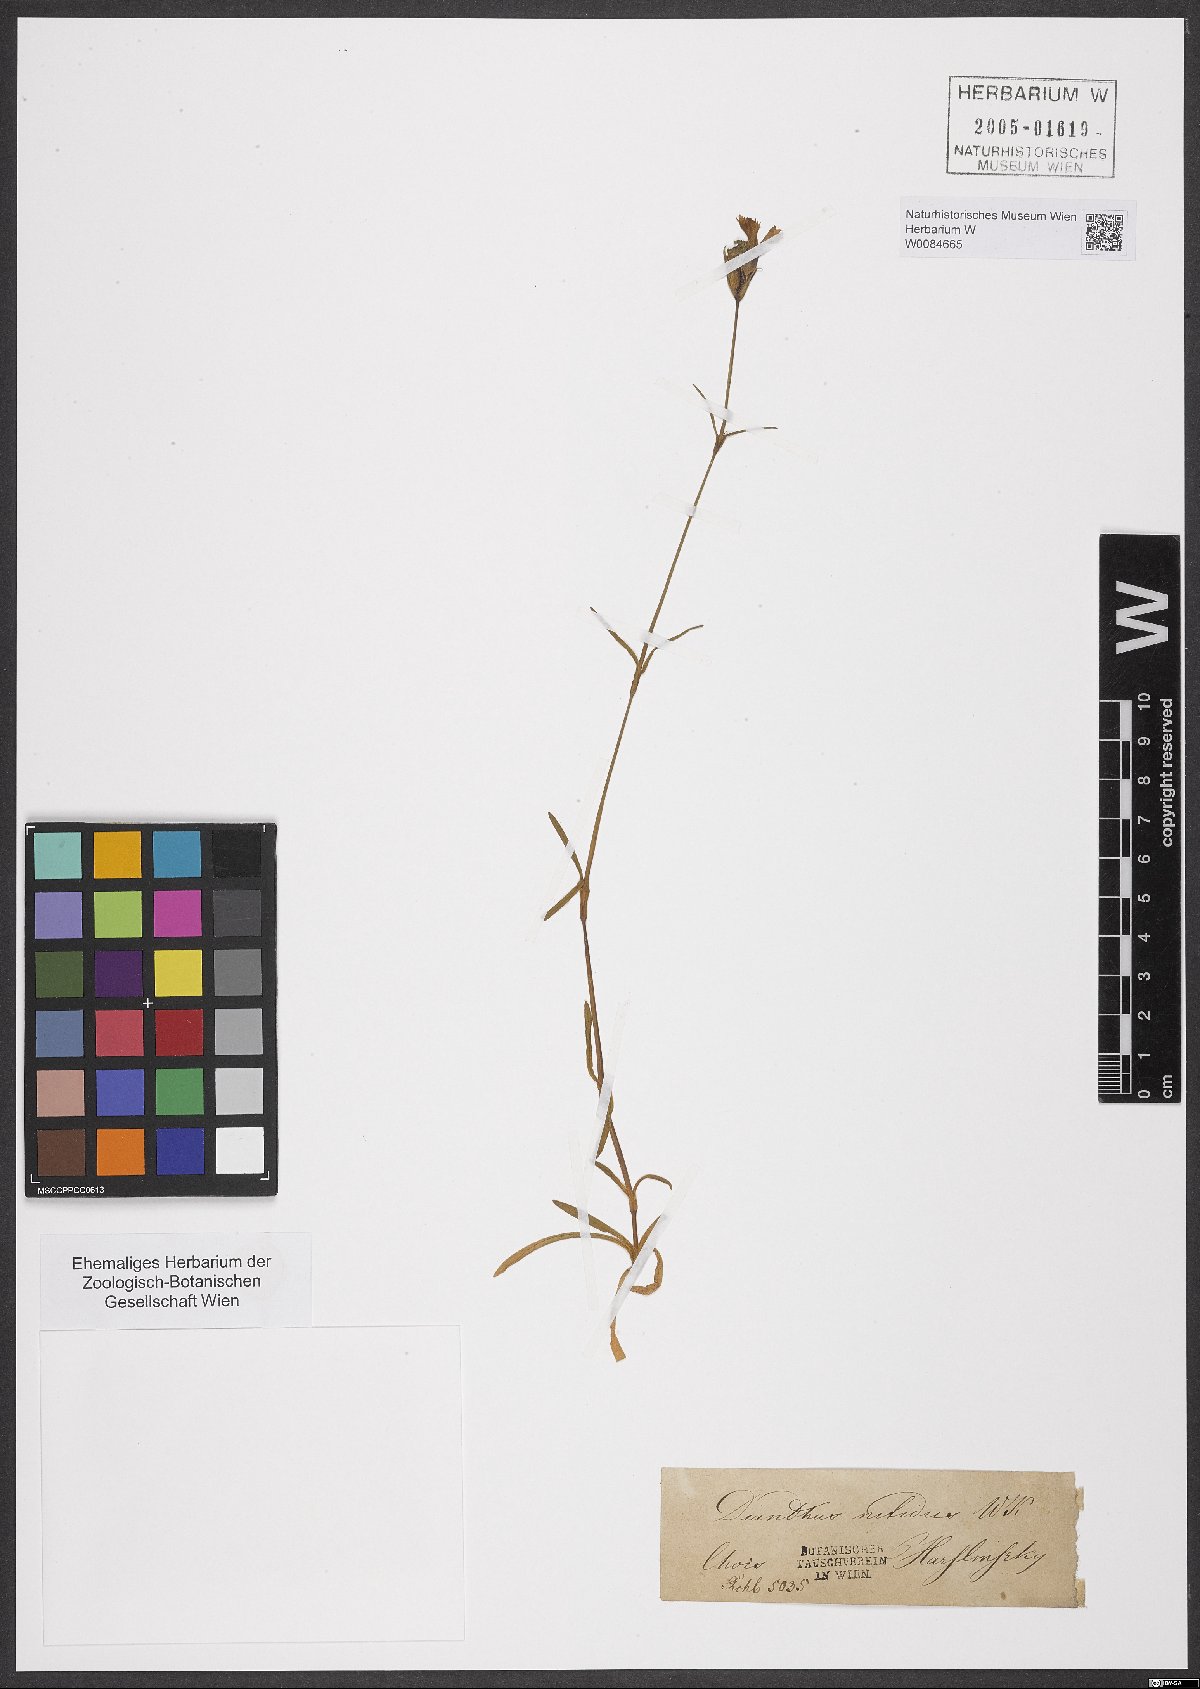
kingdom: Plantae
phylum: Tracheophyta
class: Magnoliopsida
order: Caryophyllales
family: Caryophyllaceae
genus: Dianthus
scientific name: Dianthus nitidus
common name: Carpathian glossy pink
